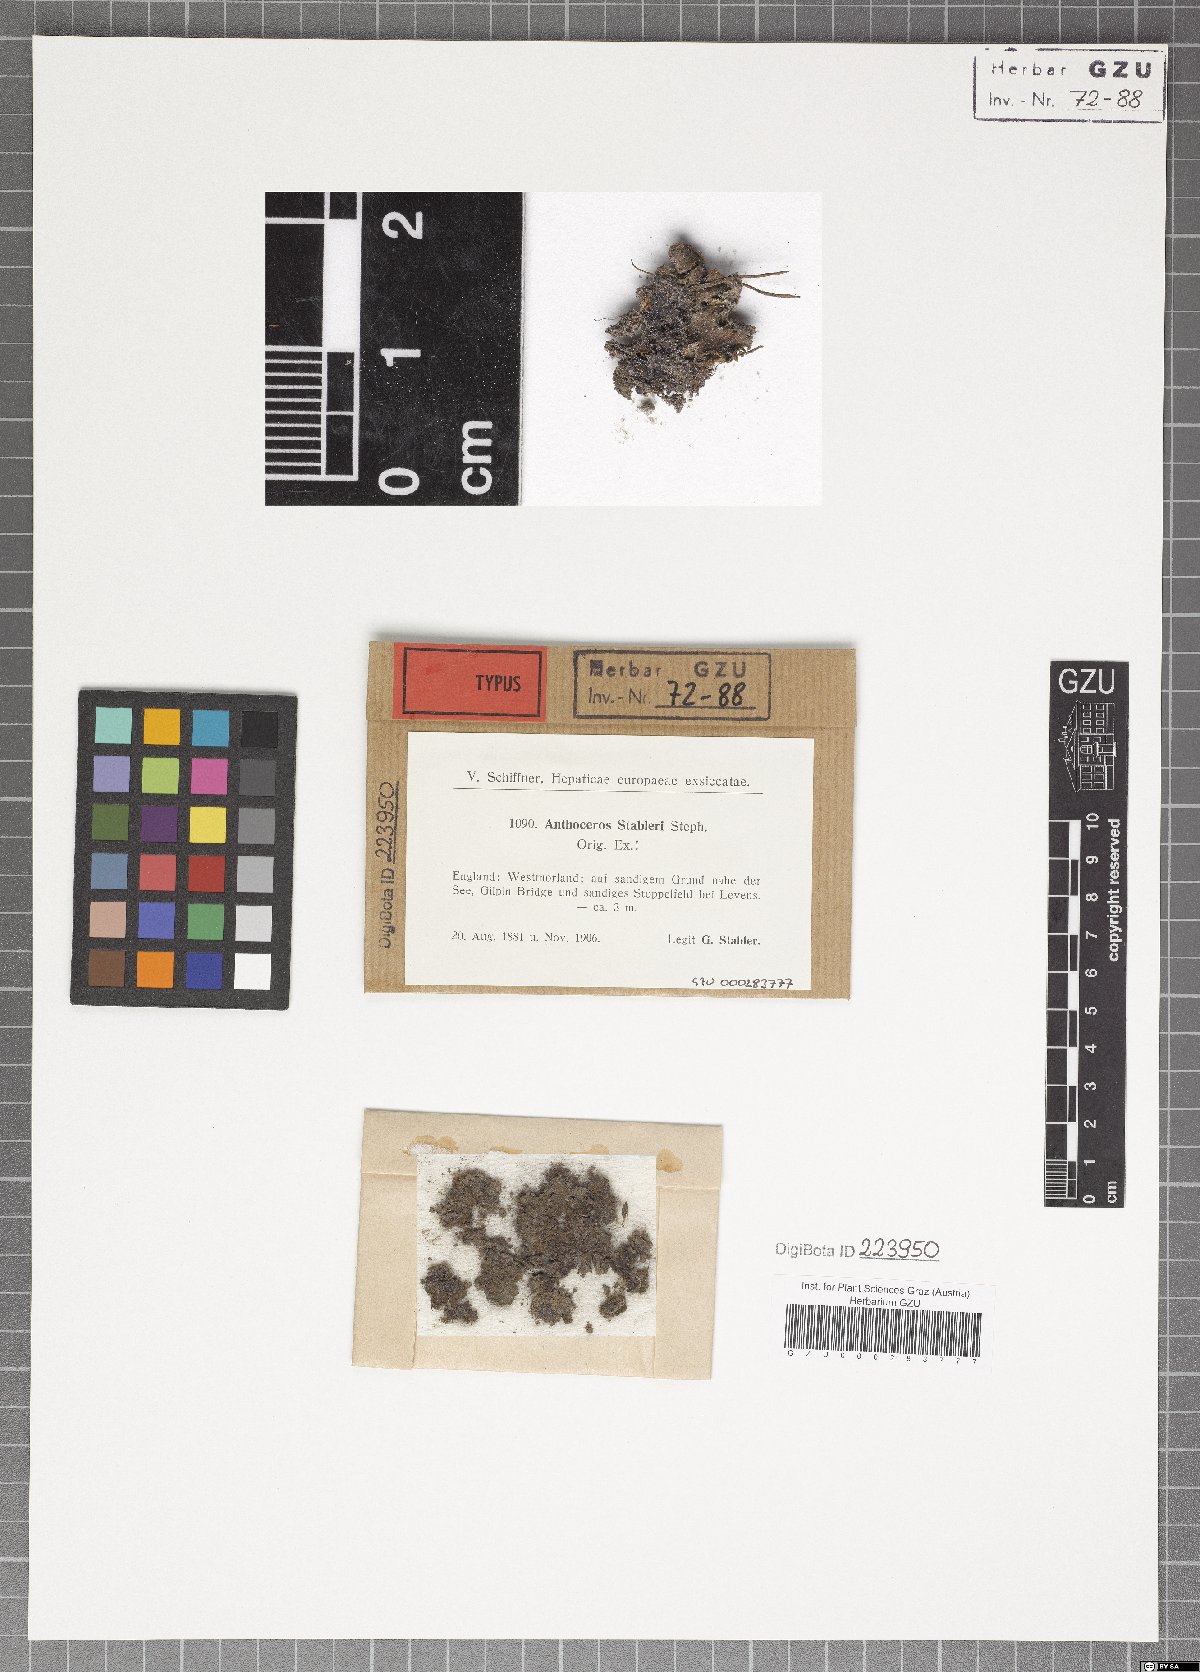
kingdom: Plantae
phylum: Anthocerotophyta
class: Anthocerotopsida
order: Anthocerotales
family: Anthocerotaceae
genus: Anthoceros
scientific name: Anthoceros punctatus
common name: Dotted hornwort
